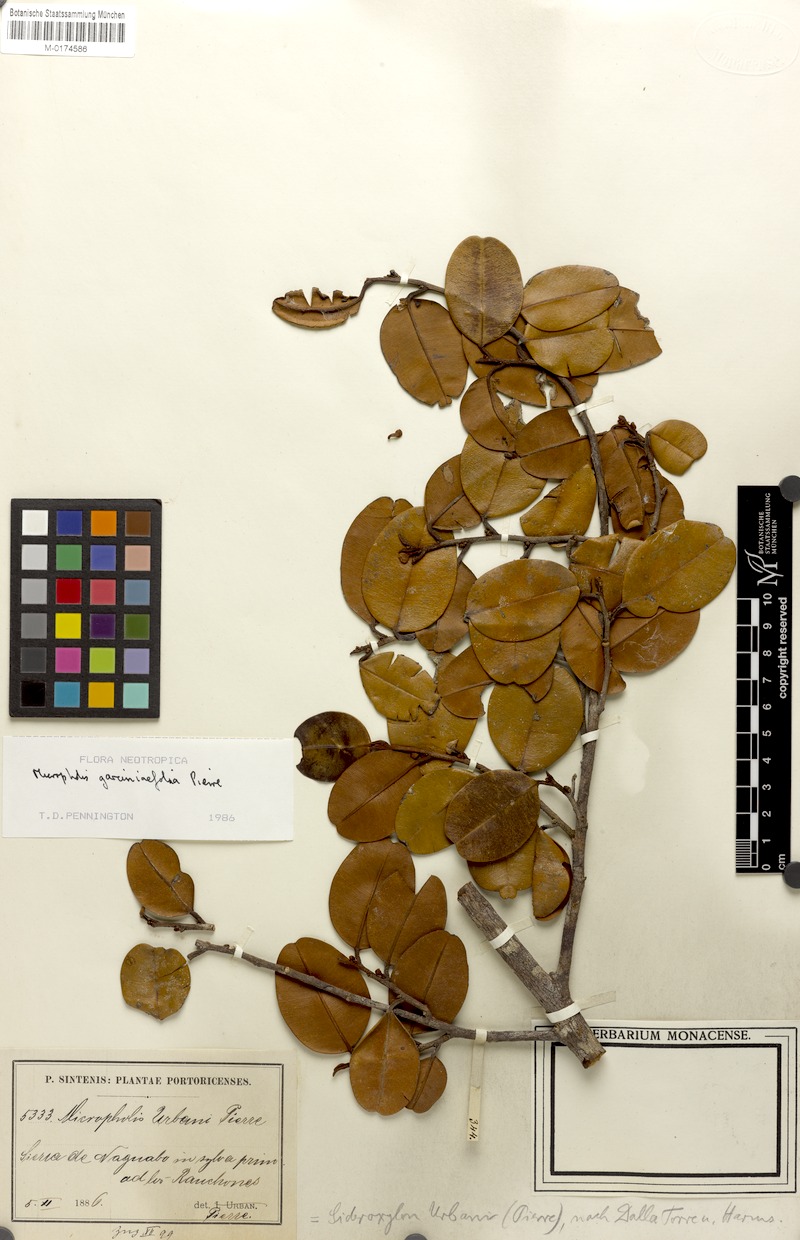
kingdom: Plantae
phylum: Tracheophyta
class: Magnoliopsida
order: Ericales
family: Sapotaceae
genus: Micropholis
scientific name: Micropholis garciniifolia
